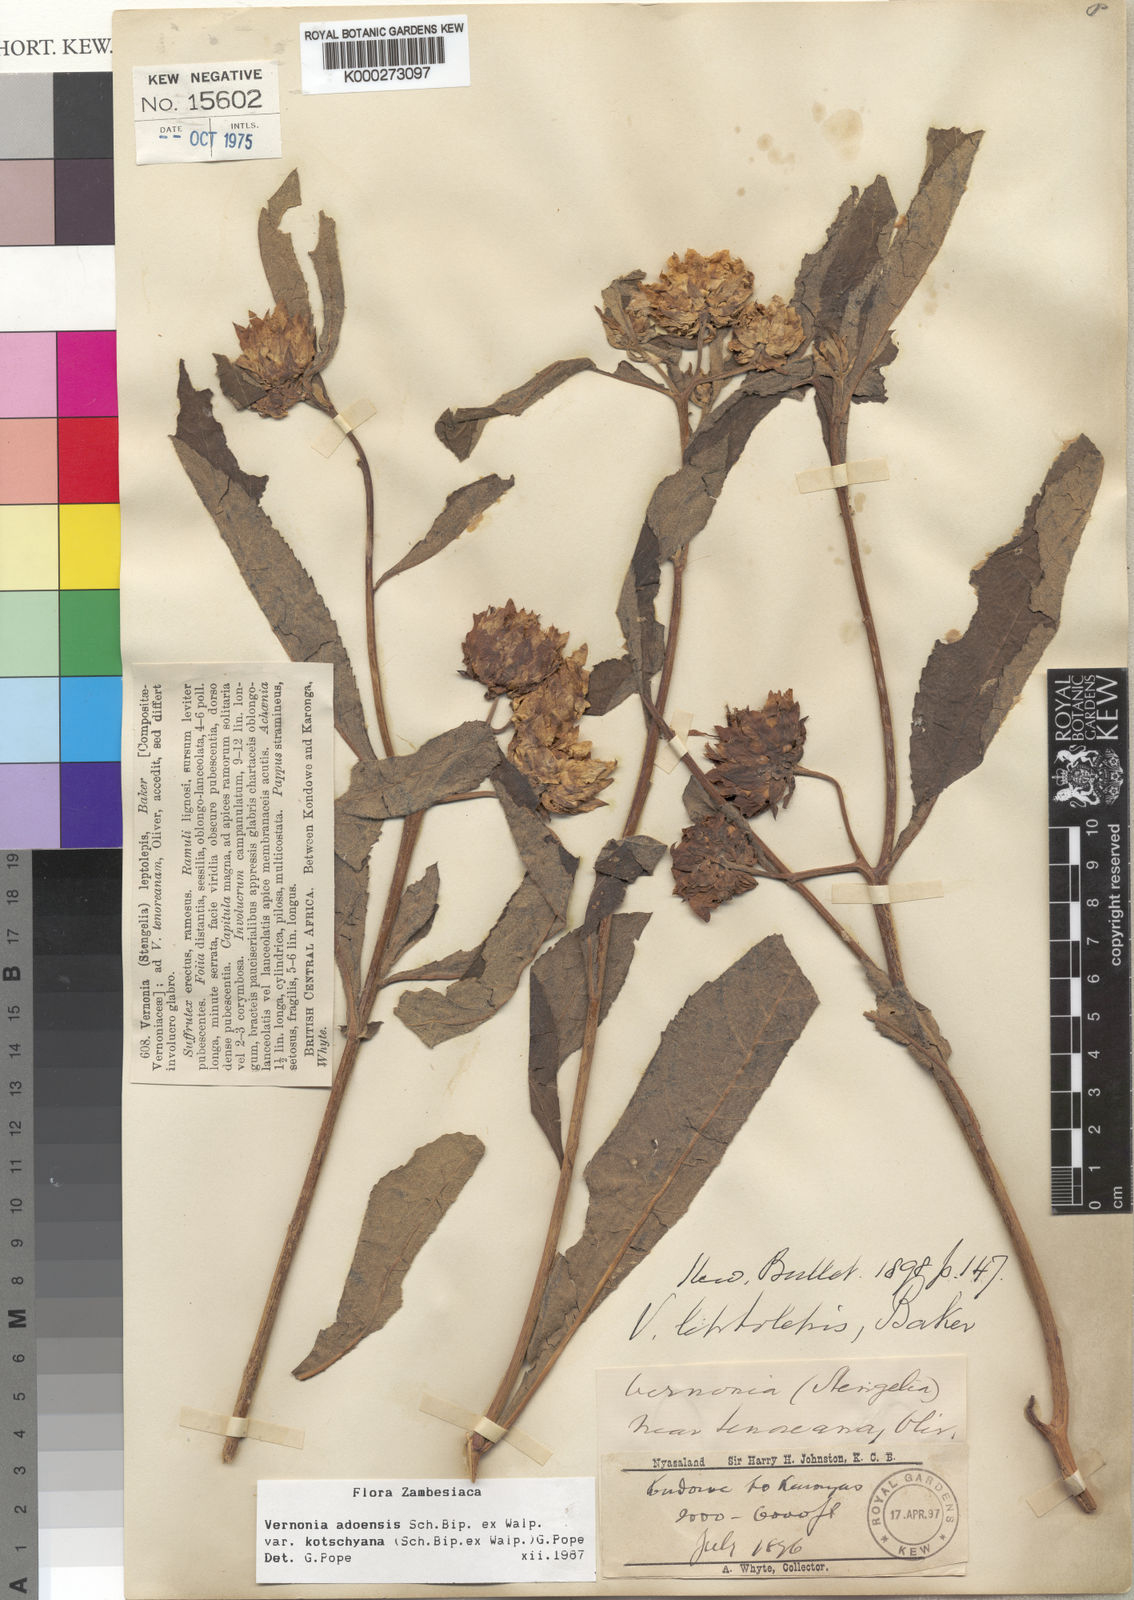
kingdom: Plantae
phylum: Tracheophyta
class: Magnoliopsida
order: Asterales
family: Asteraceae
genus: Baccharoides
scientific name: Baccharoides adoensis
